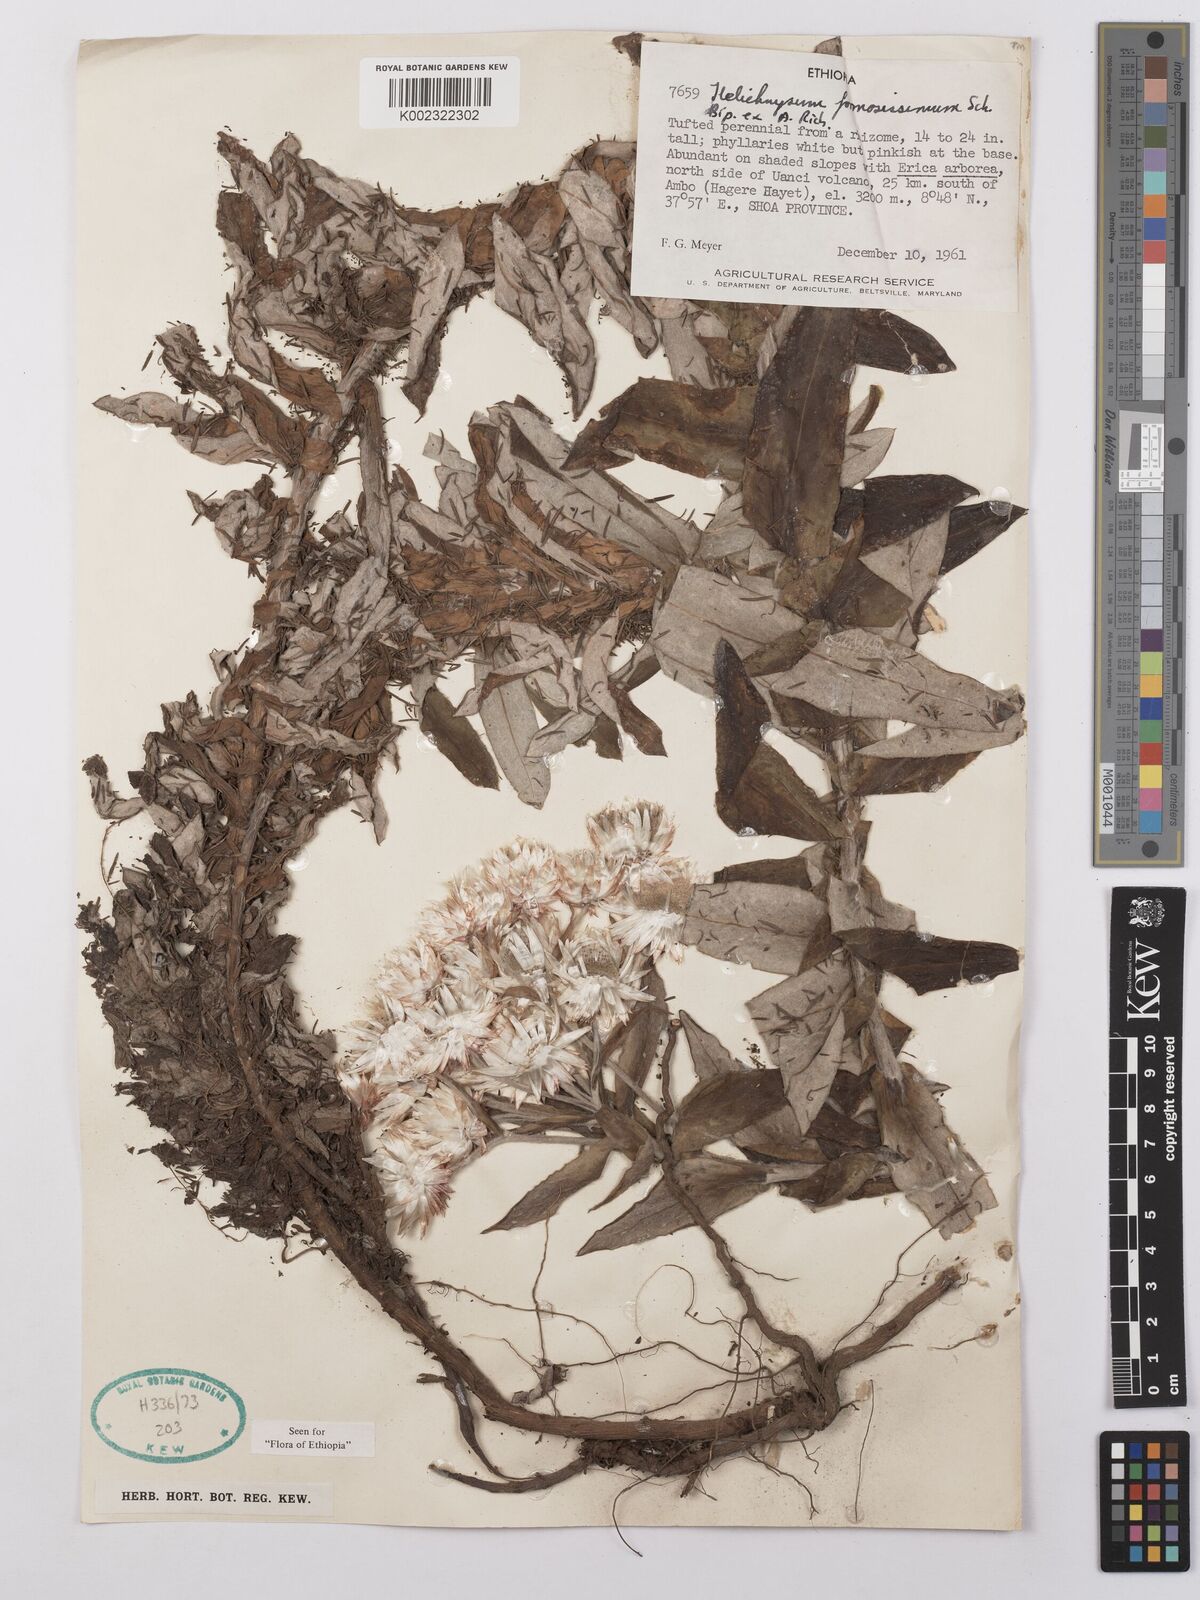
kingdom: Plantae
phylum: Tracheophyta
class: Magnoliopsida
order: Asterales
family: Asteraceae
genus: Helichrysum
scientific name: Helichrysum formosissimum
